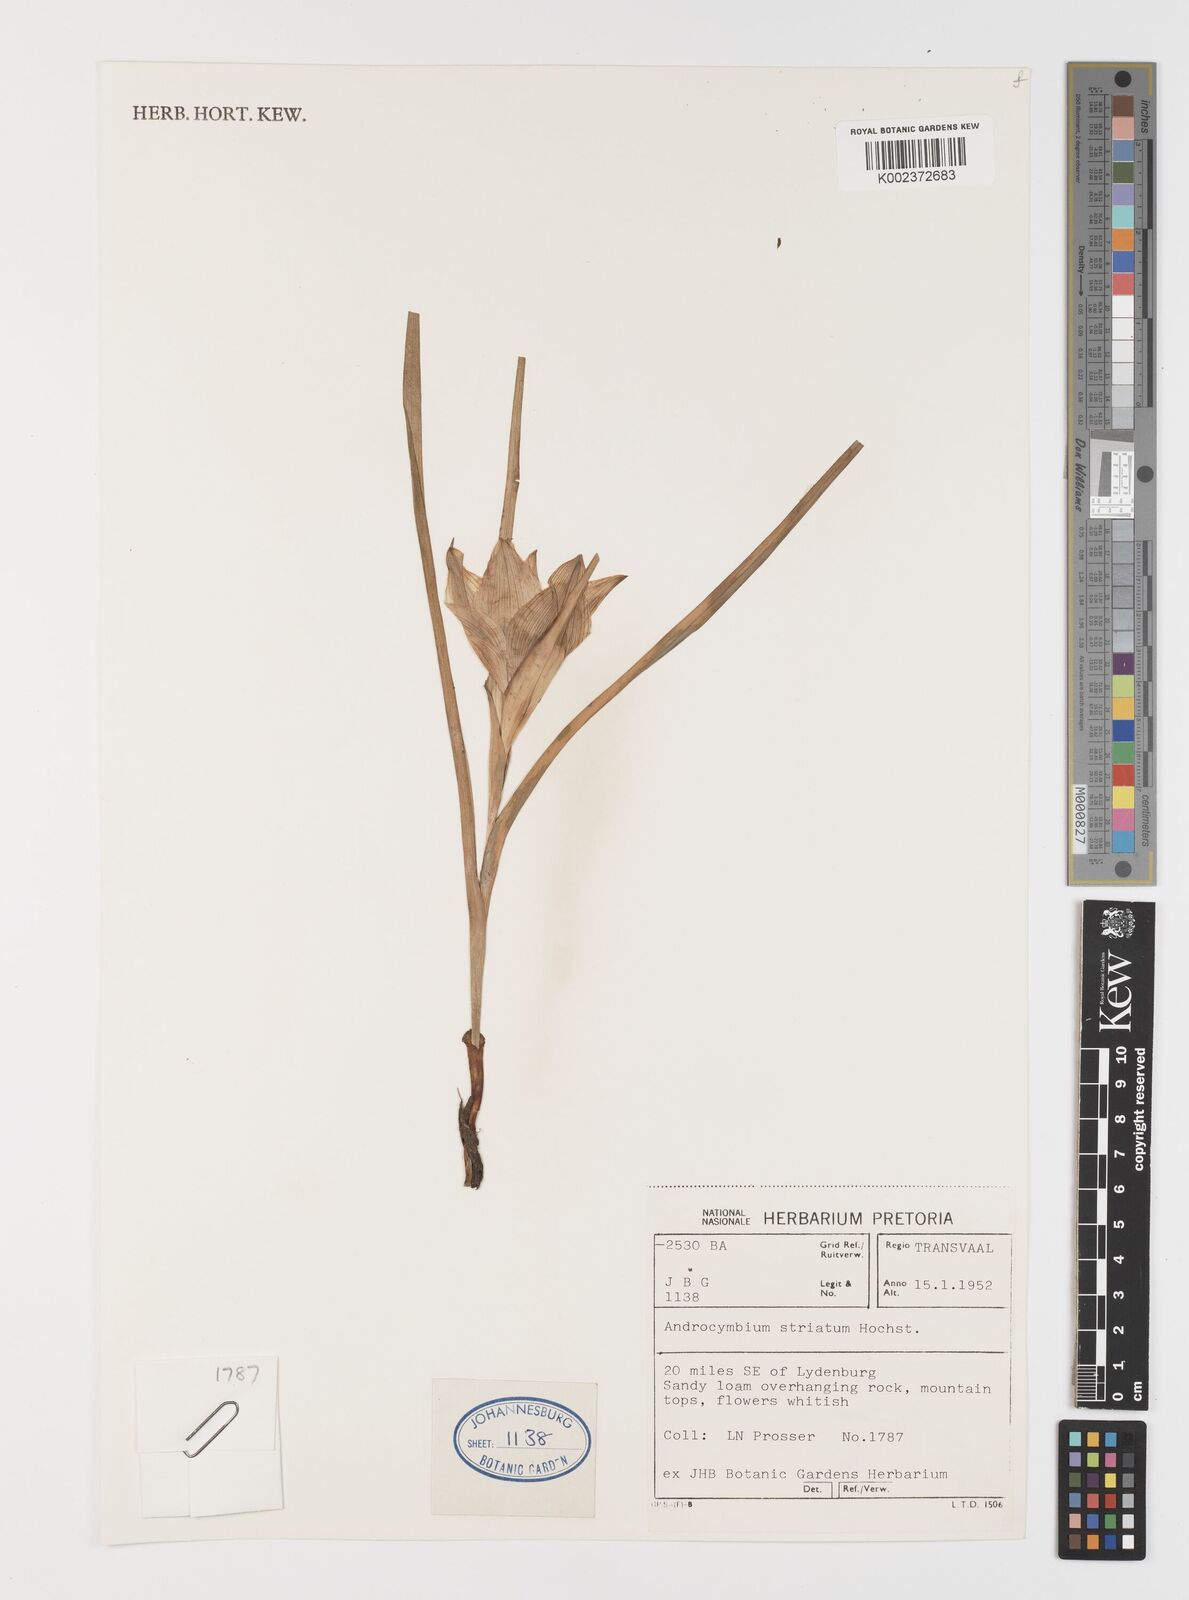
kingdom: Plantae
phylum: Tracheophyta
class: Liliopsida
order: Liliales
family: Colchicaceae
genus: Colchicum
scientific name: Colchicum striatum
